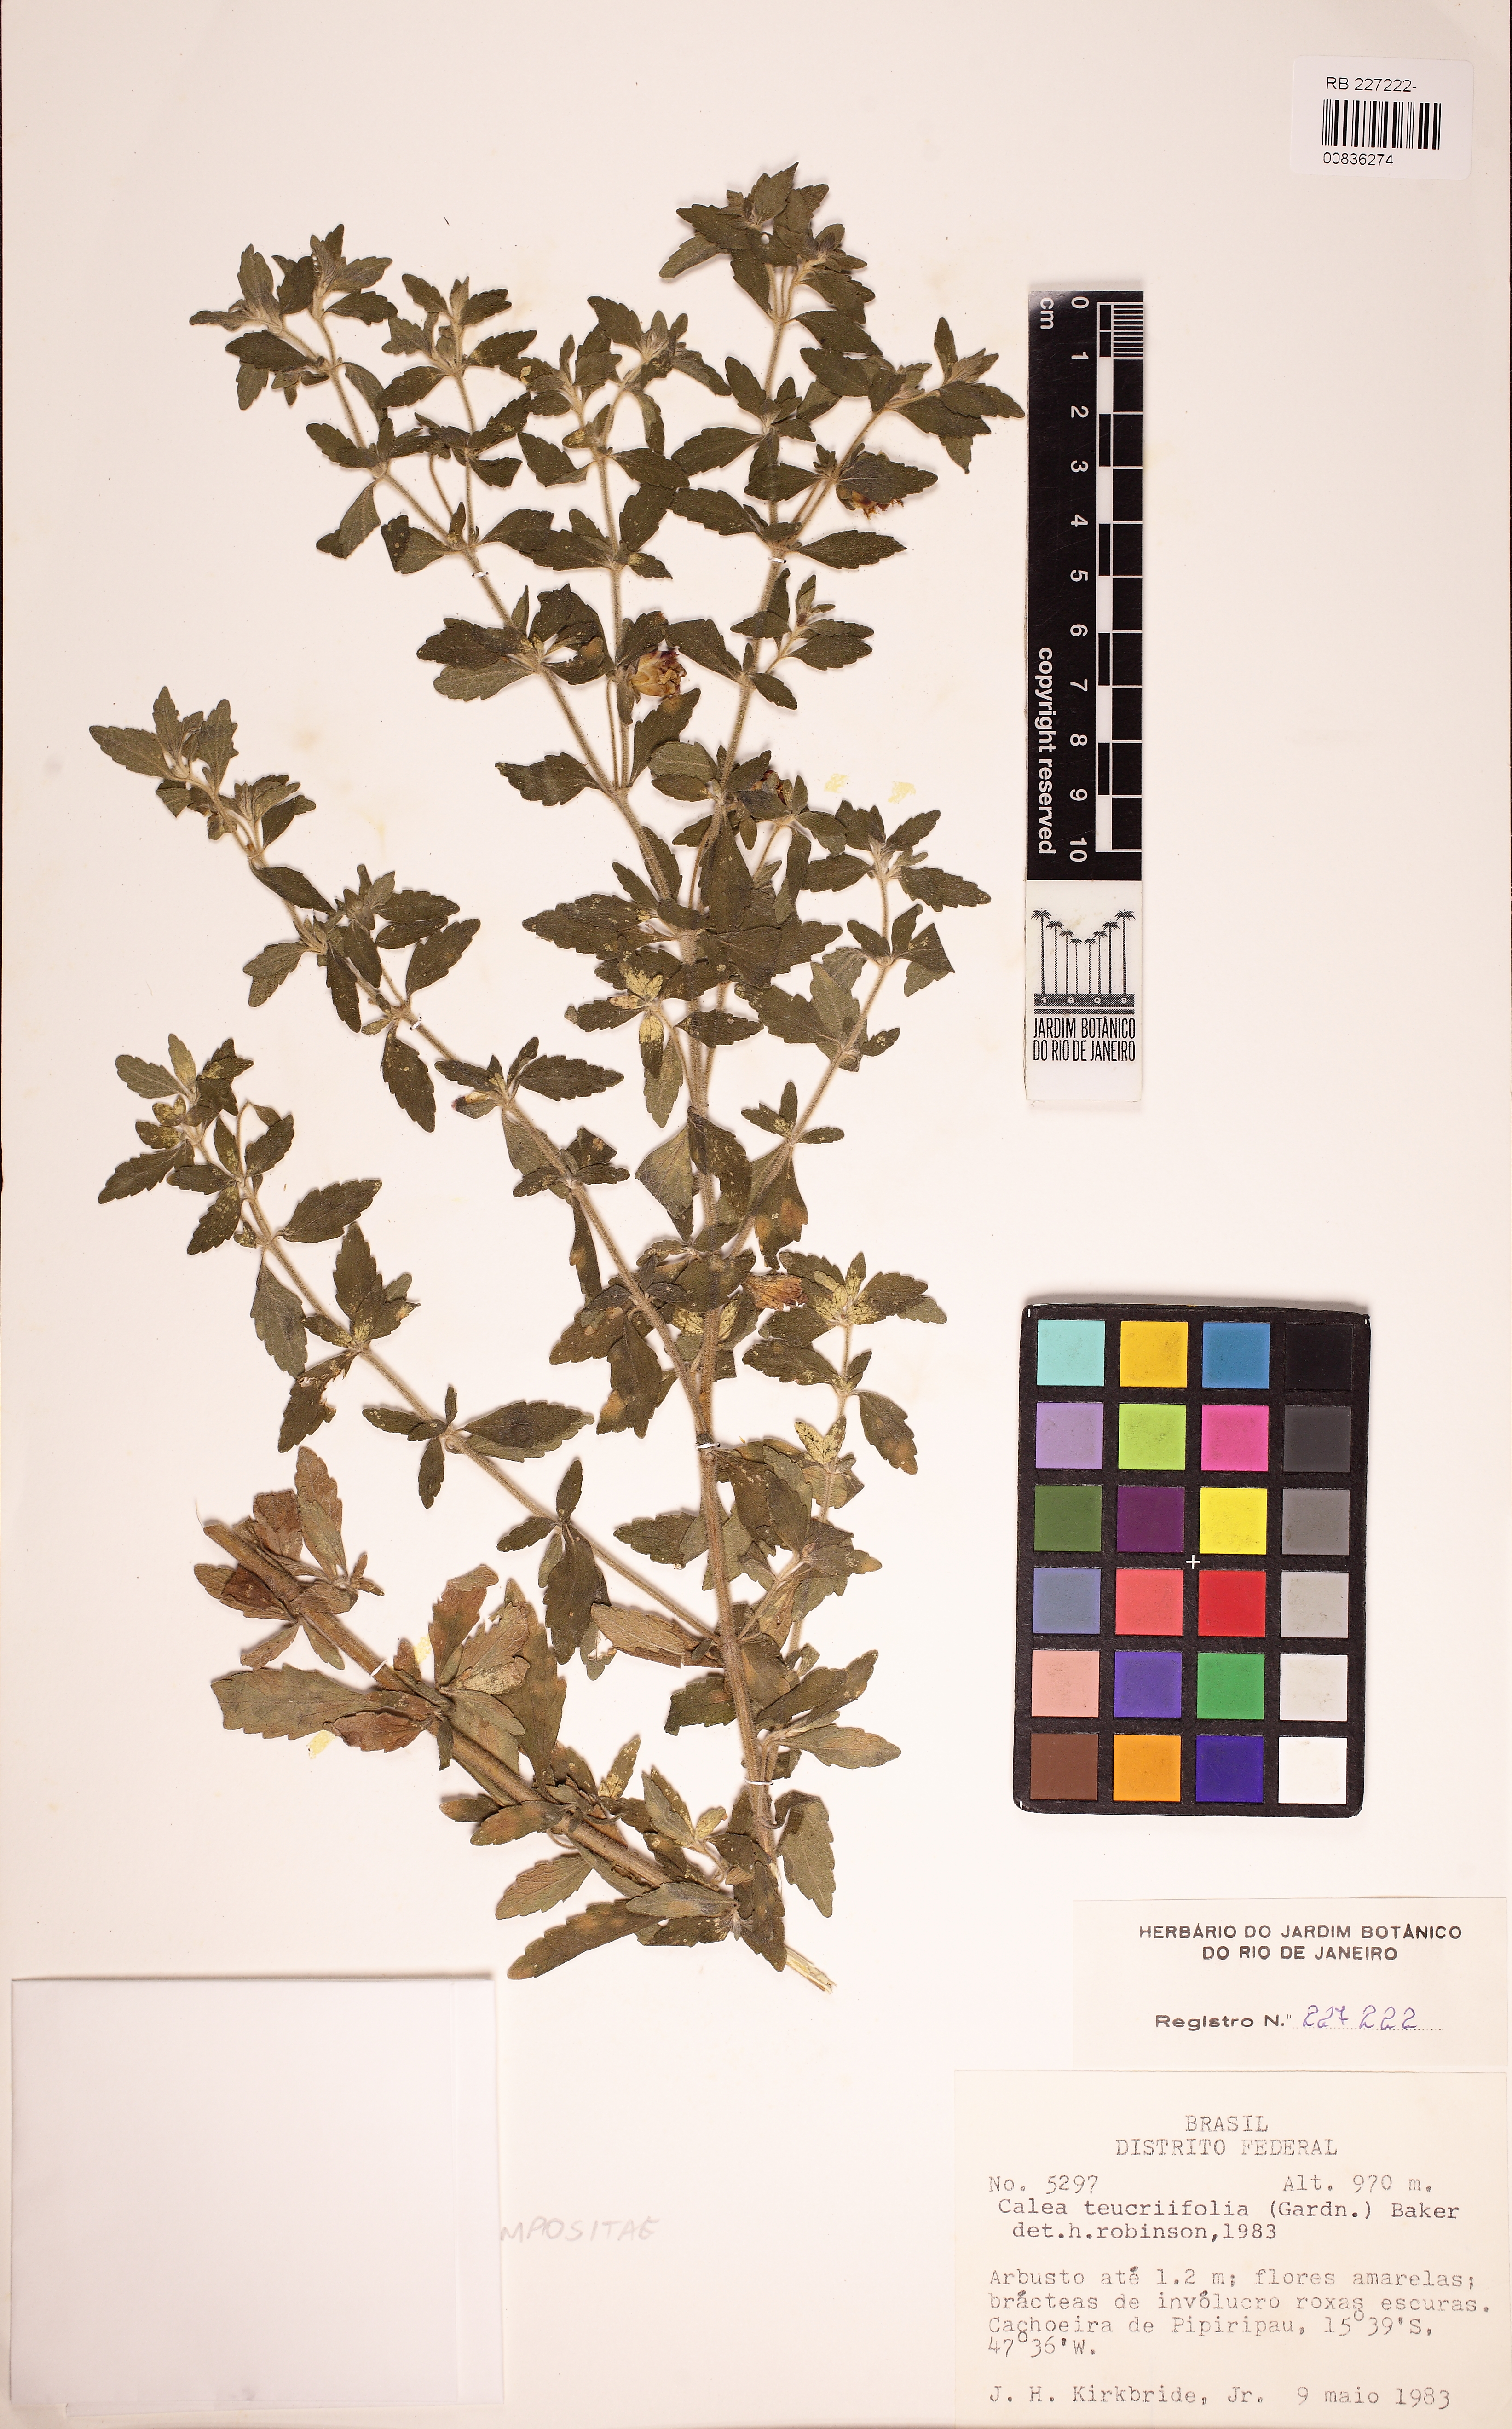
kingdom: Plantae
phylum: Tracheophyta
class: Magnoliopsida
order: Asterales
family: Asteraceae
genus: Calea
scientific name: Calea teucriifolia
